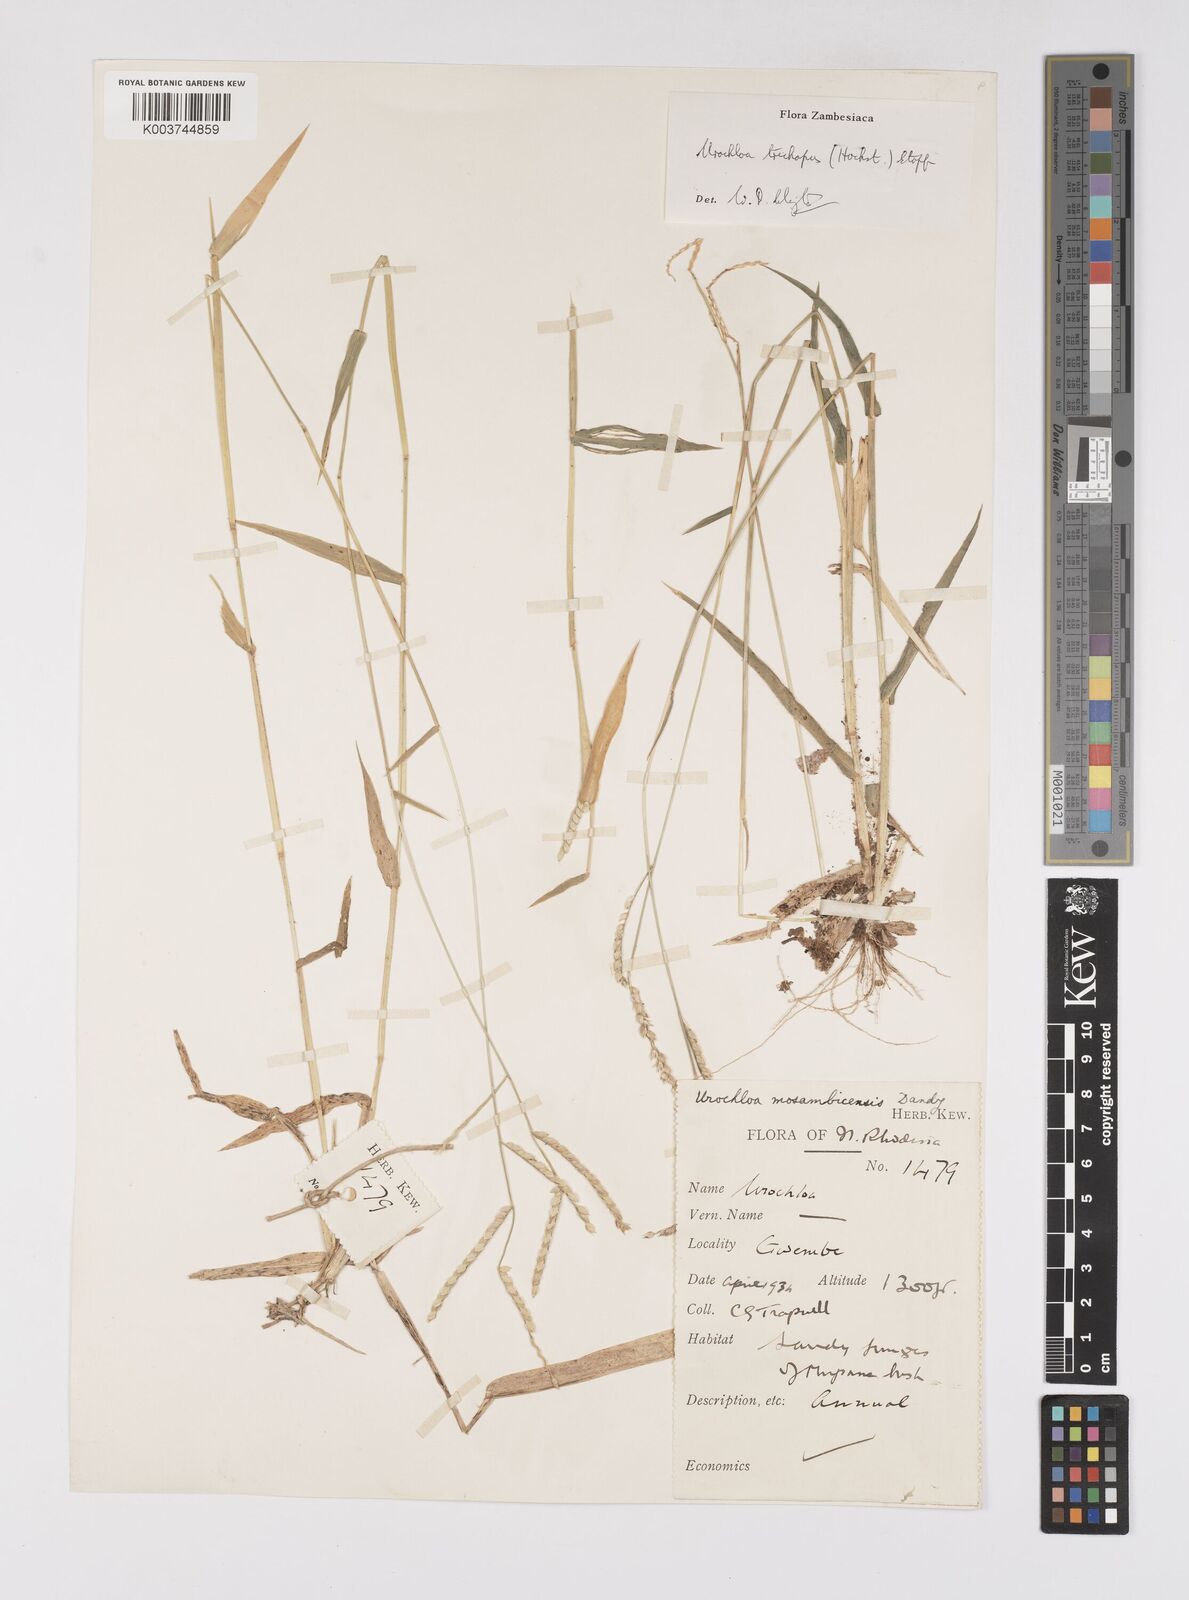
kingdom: Plantae
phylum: Tracheophyta
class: Liliopsida
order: Poales
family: Poaceae
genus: Urochloa
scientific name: Urochloa trichopus
